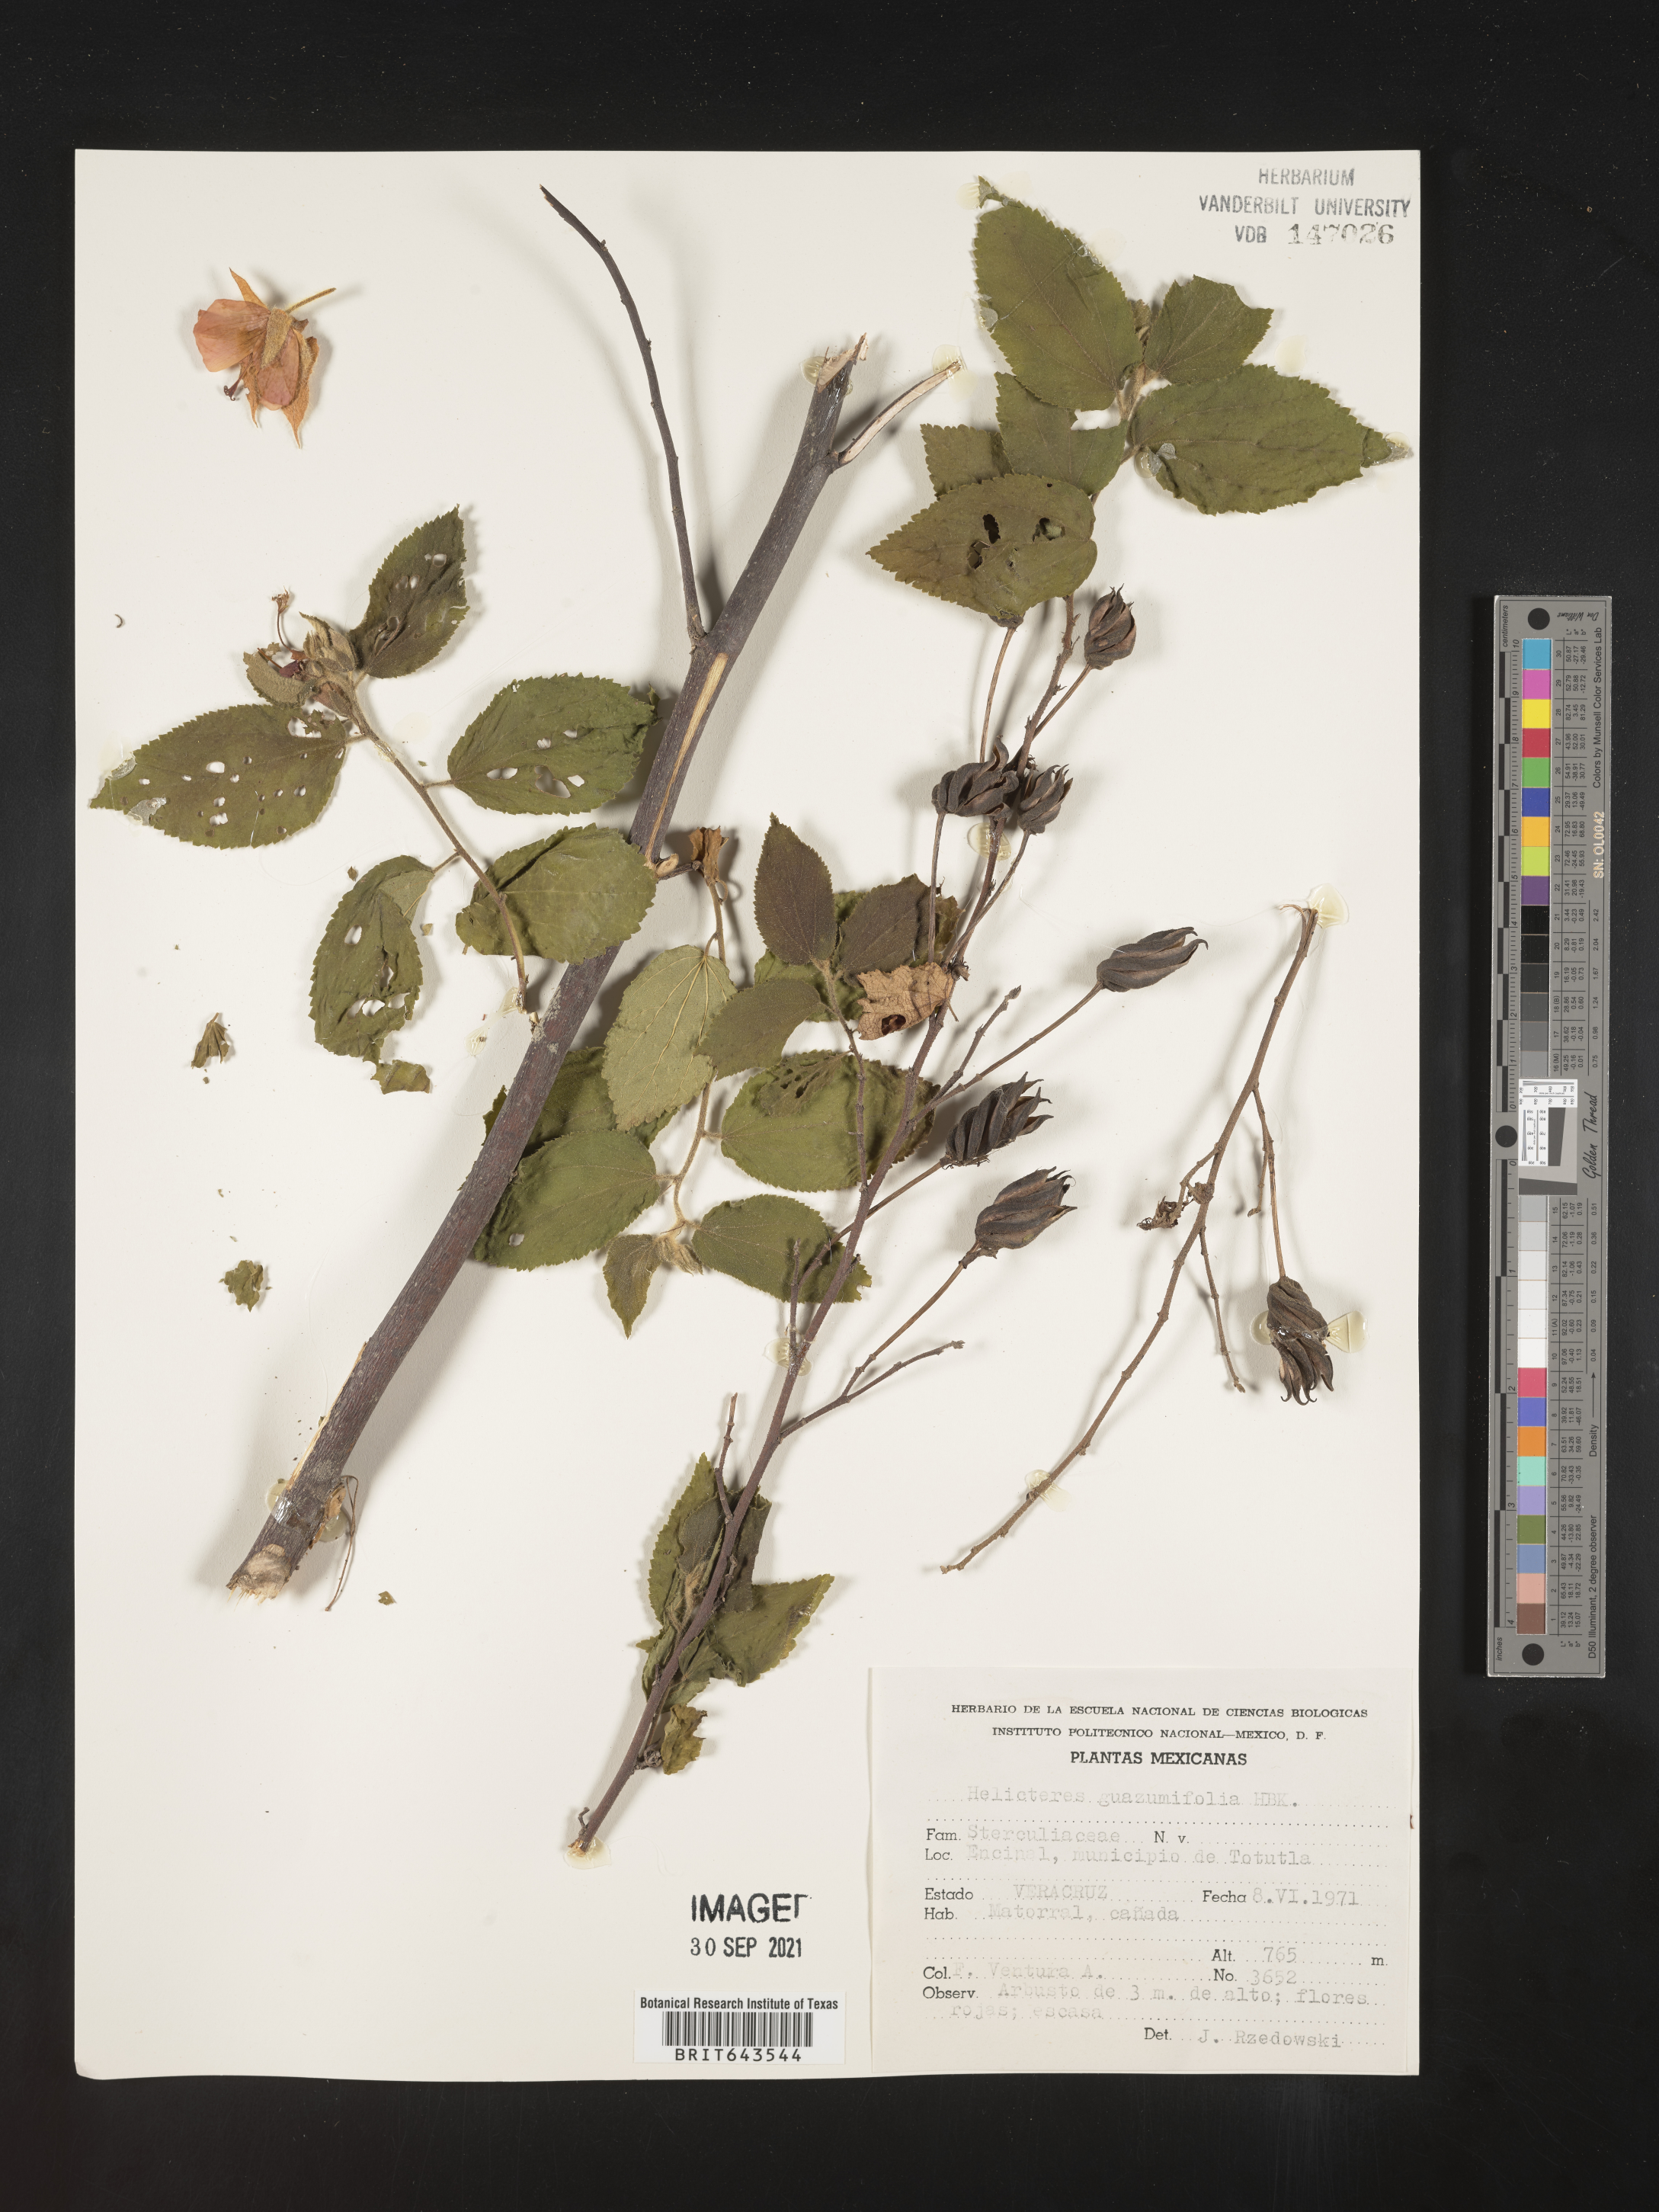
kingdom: Plantae
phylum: Tracheophyta
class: Magnoliopsida
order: Malvales
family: Malvaceae
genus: Helicteres
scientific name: Helicteres
